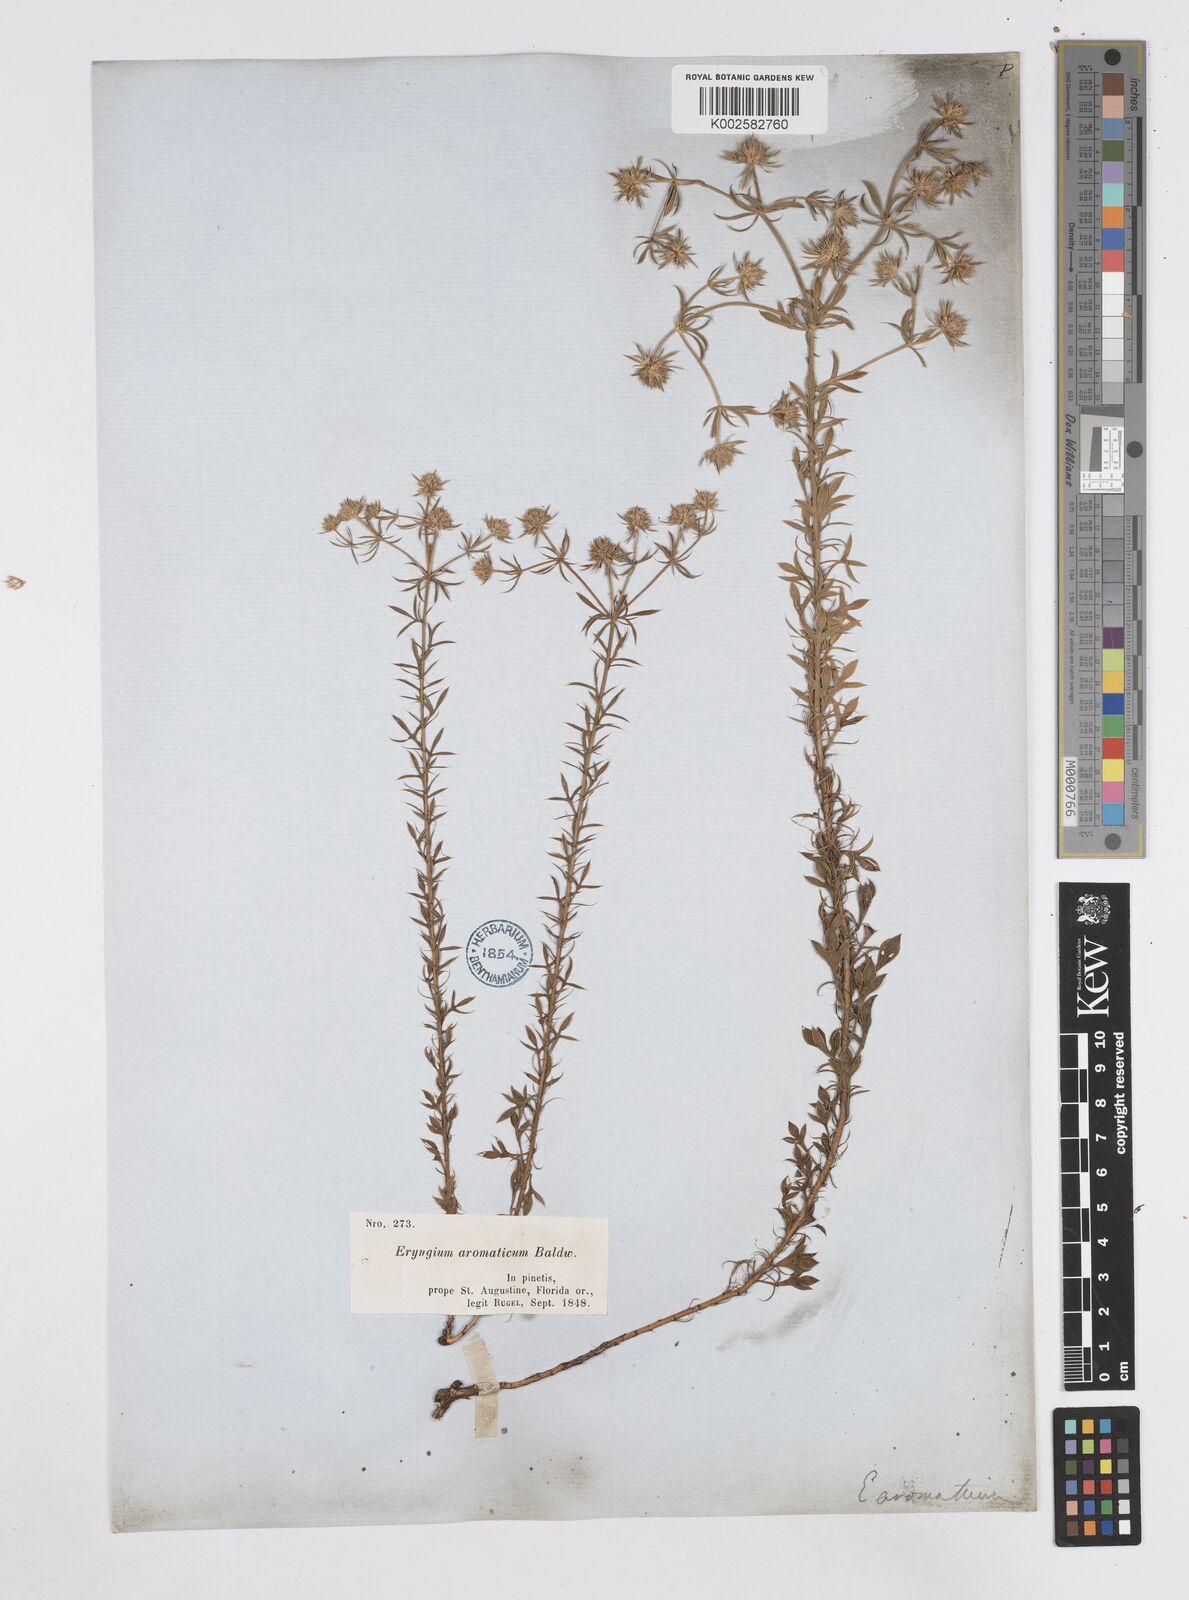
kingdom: Plantae
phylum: Tracheophyta
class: Magnoliopsida
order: Apiales
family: Apiaceae
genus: Eryngium
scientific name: Eryngium aromaticum
